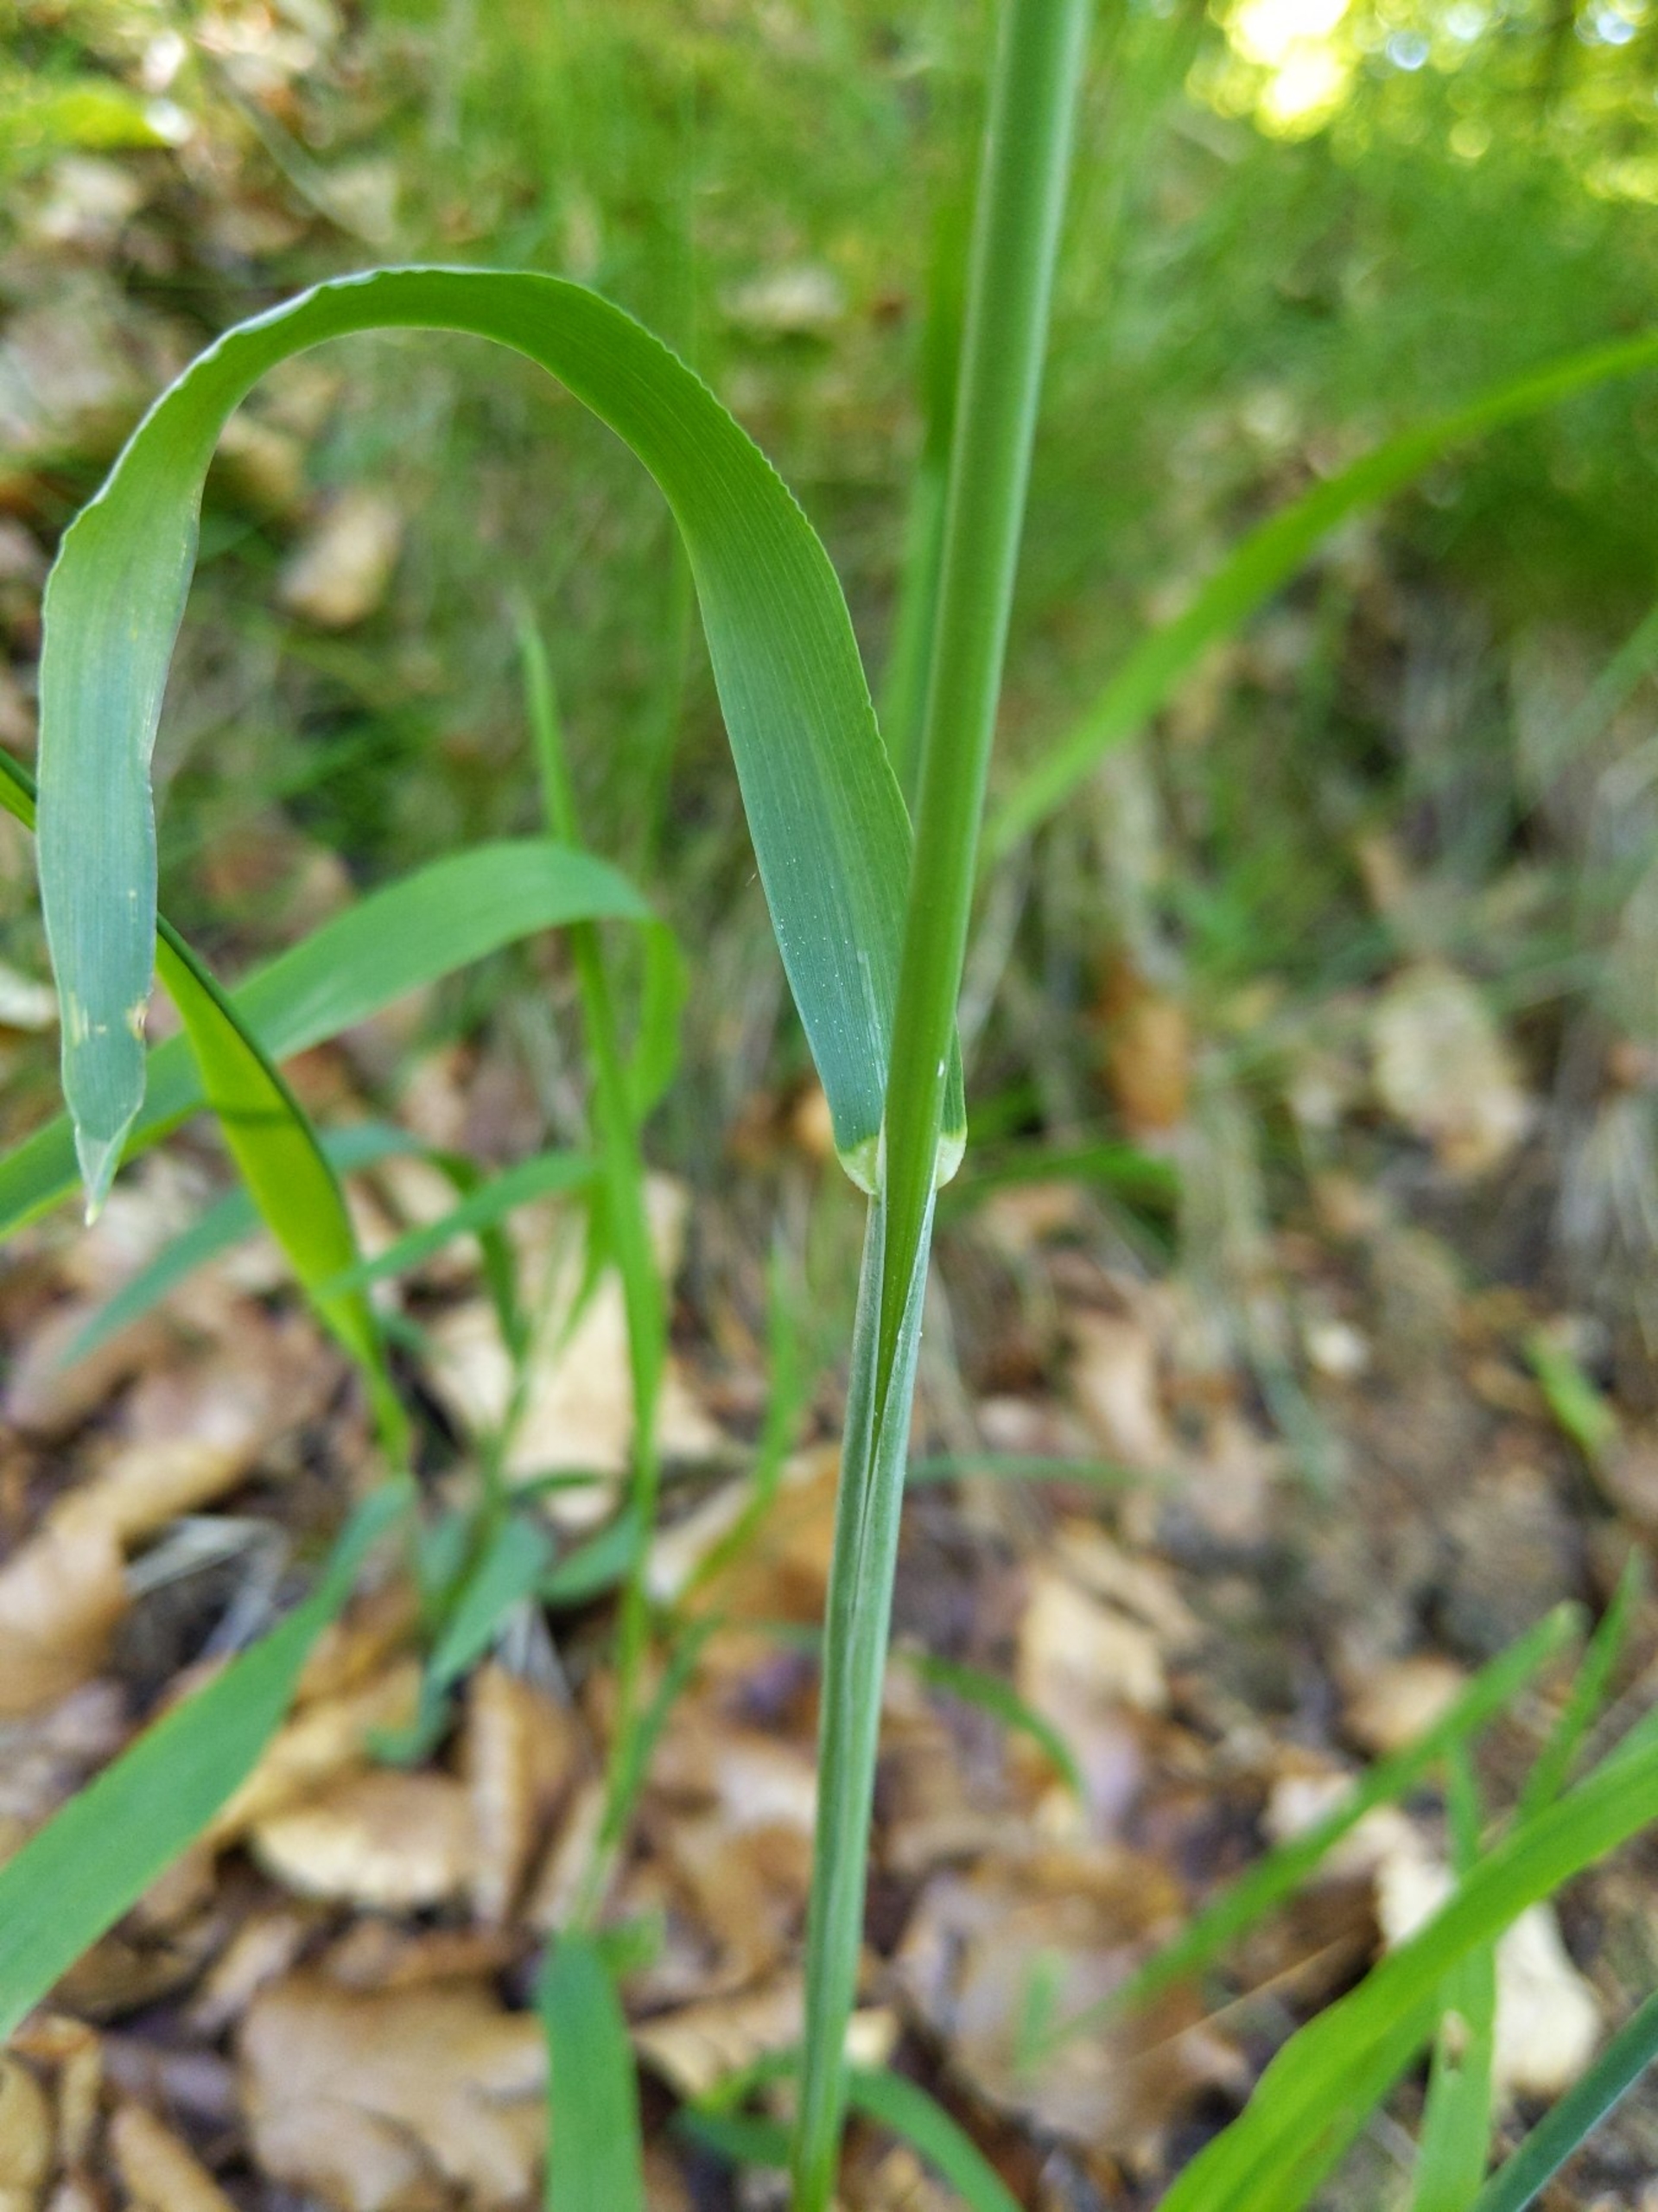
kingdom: Plantae
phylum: Tracheophyta
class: Liliopsida
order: Poales
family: Poaceae
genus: Milium
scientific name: Milium effusum
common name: Miliegræs
